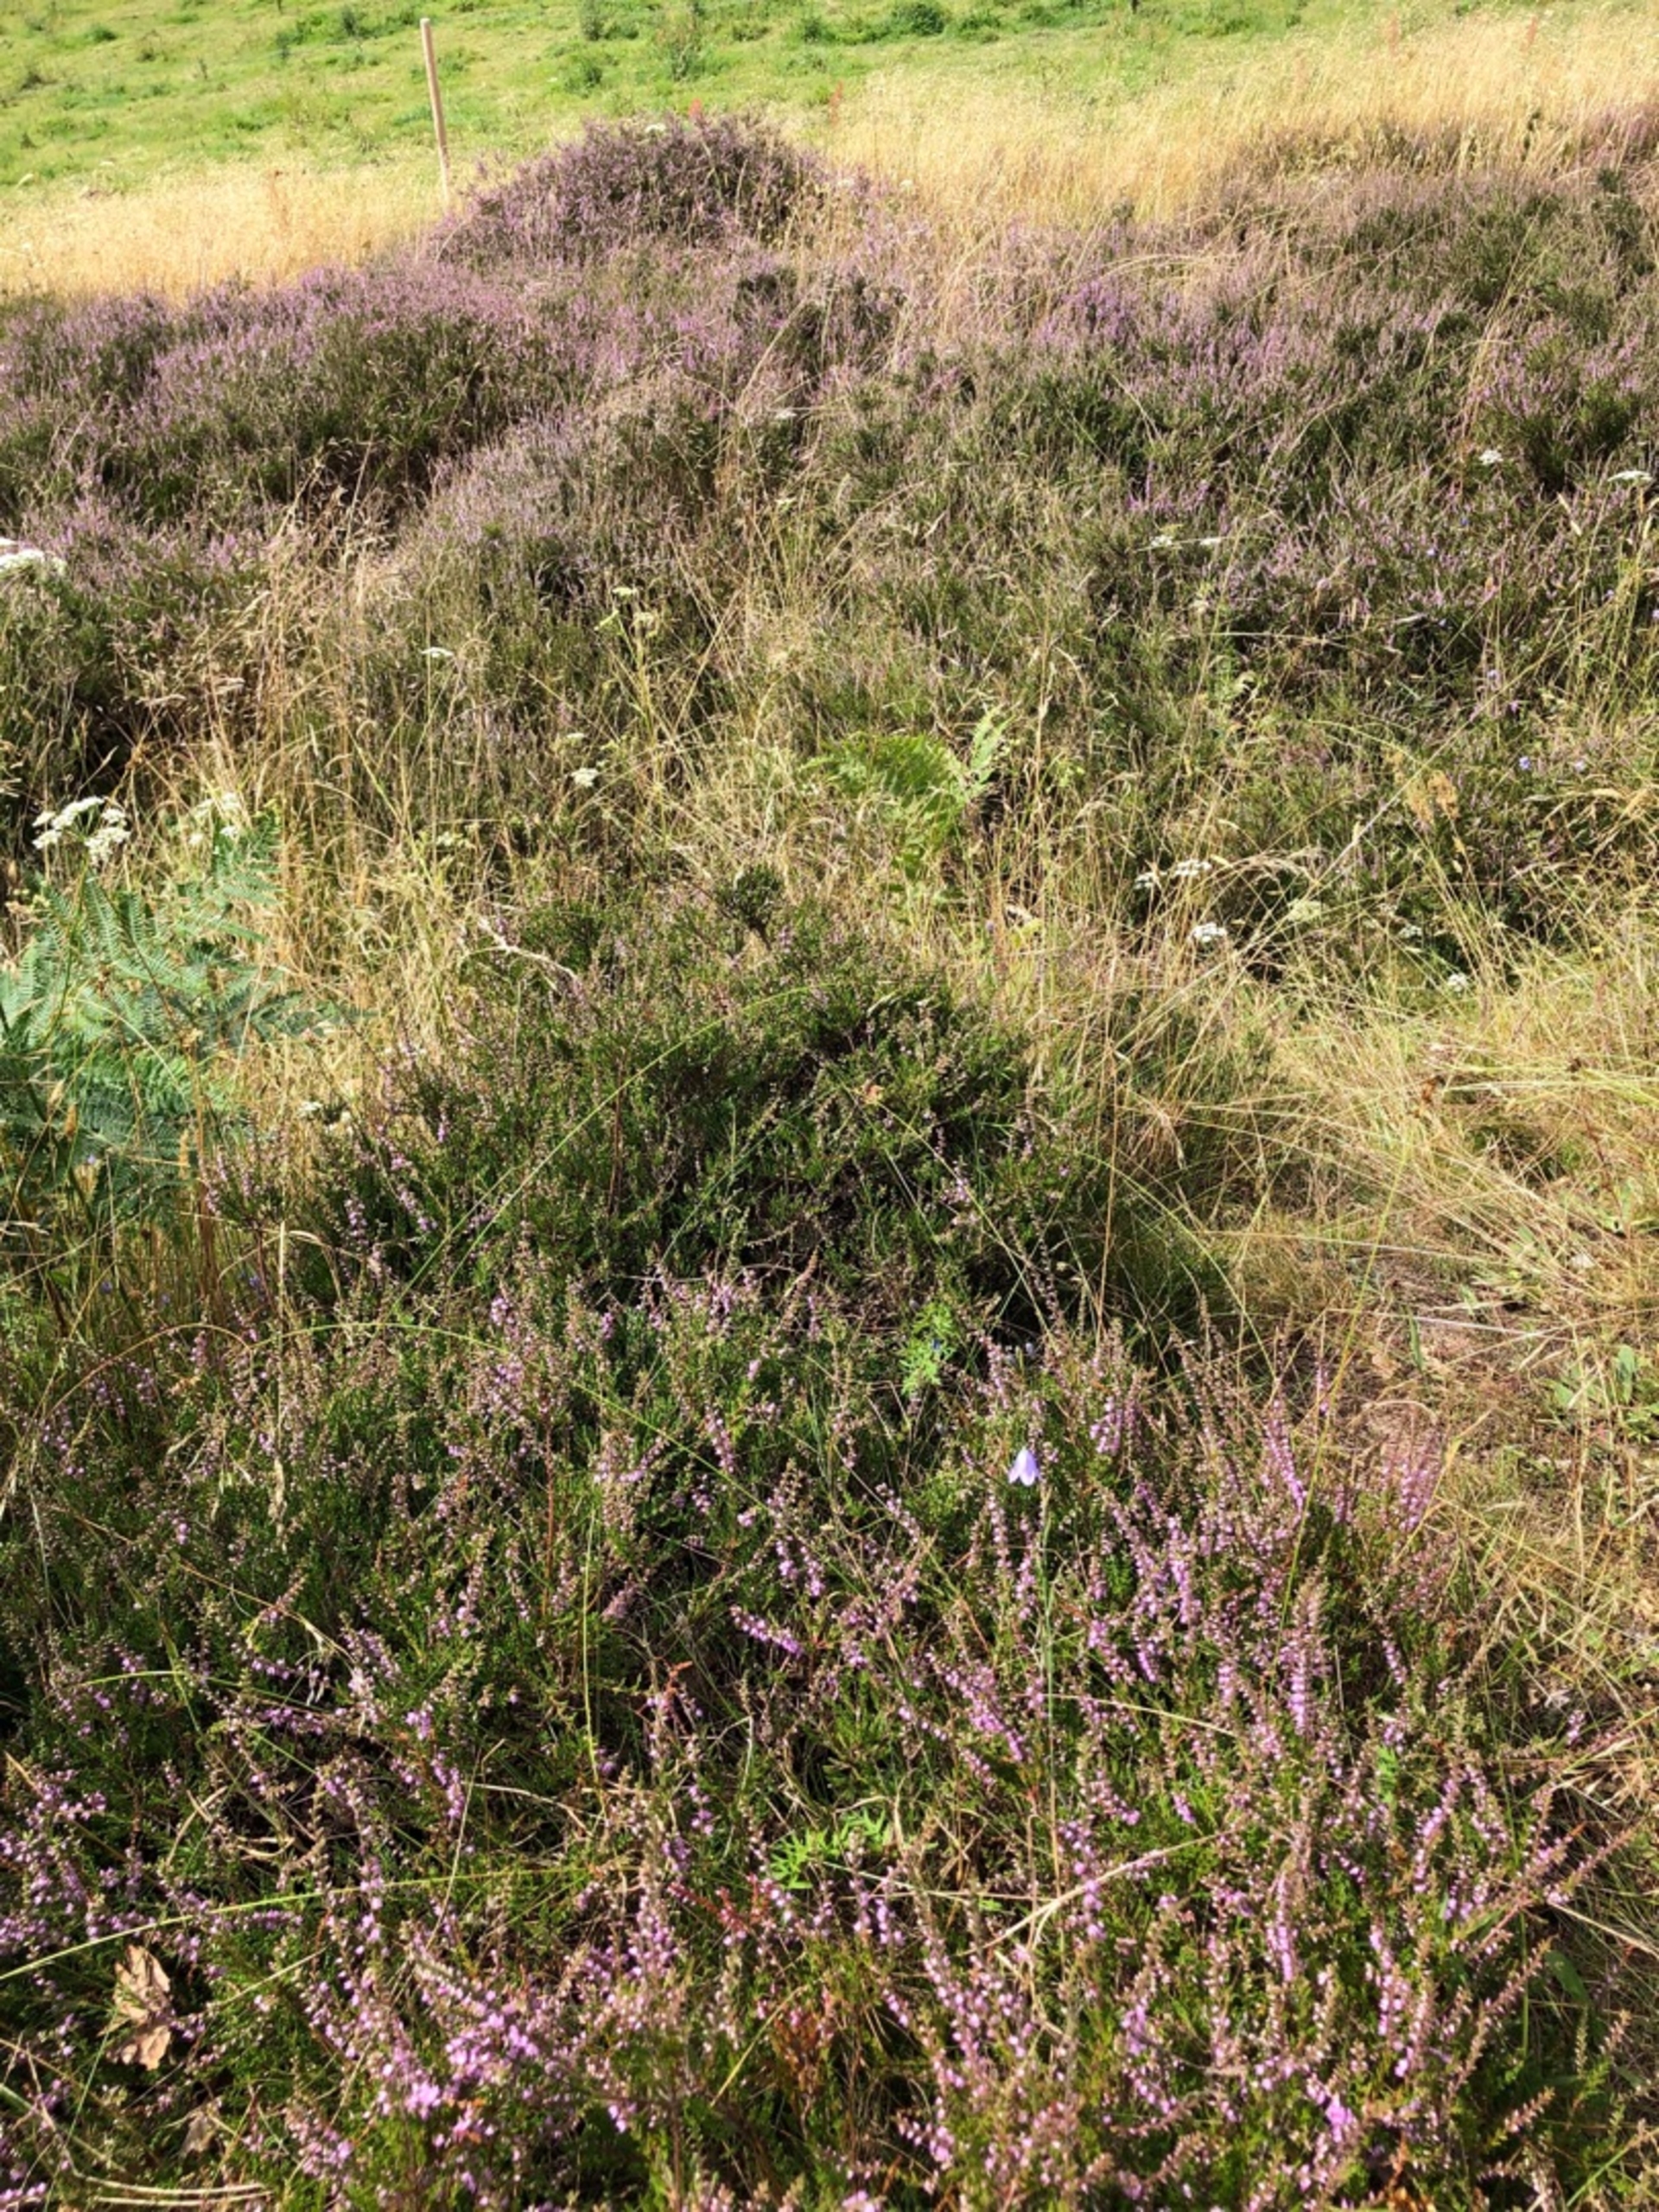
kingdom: Plantae
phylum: Tracheophyta
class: Magnoliopsida
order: Ericales
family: Ericaceae
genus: Calluna
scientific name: Calluna vulgaris
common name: Hedelyng
